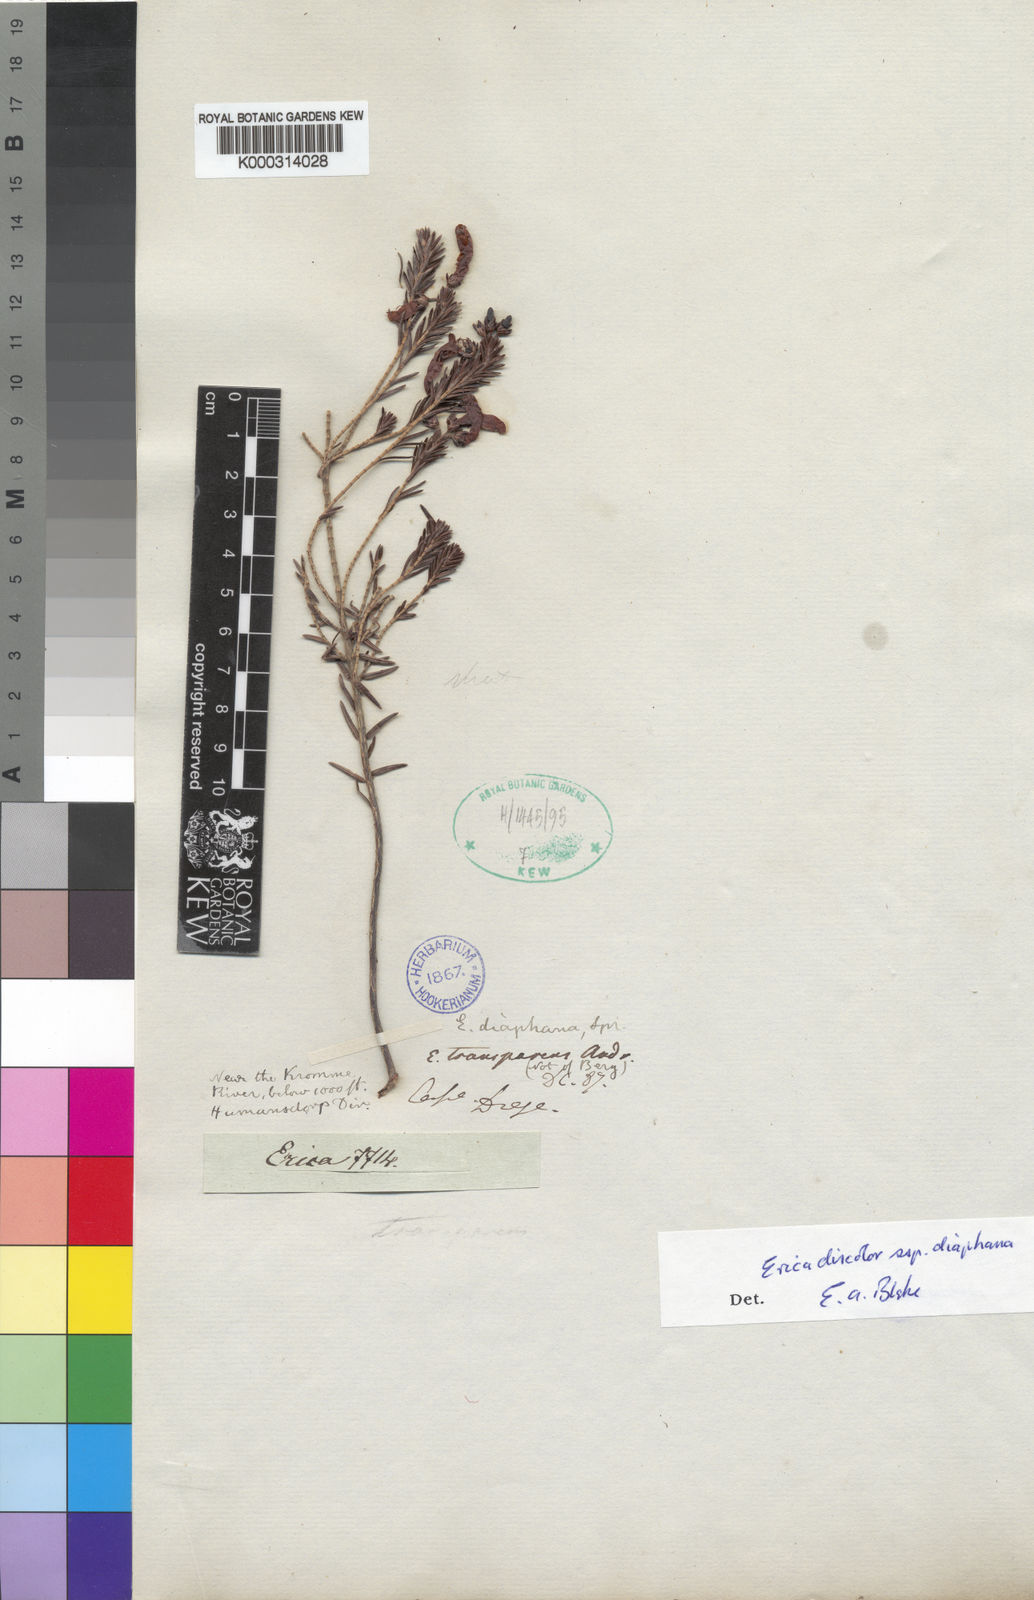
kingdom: Plantae
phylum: Tracheophyta
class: Magnoliopsida
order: Ericales
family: Ericaceae
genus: Erica
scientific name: Erica
